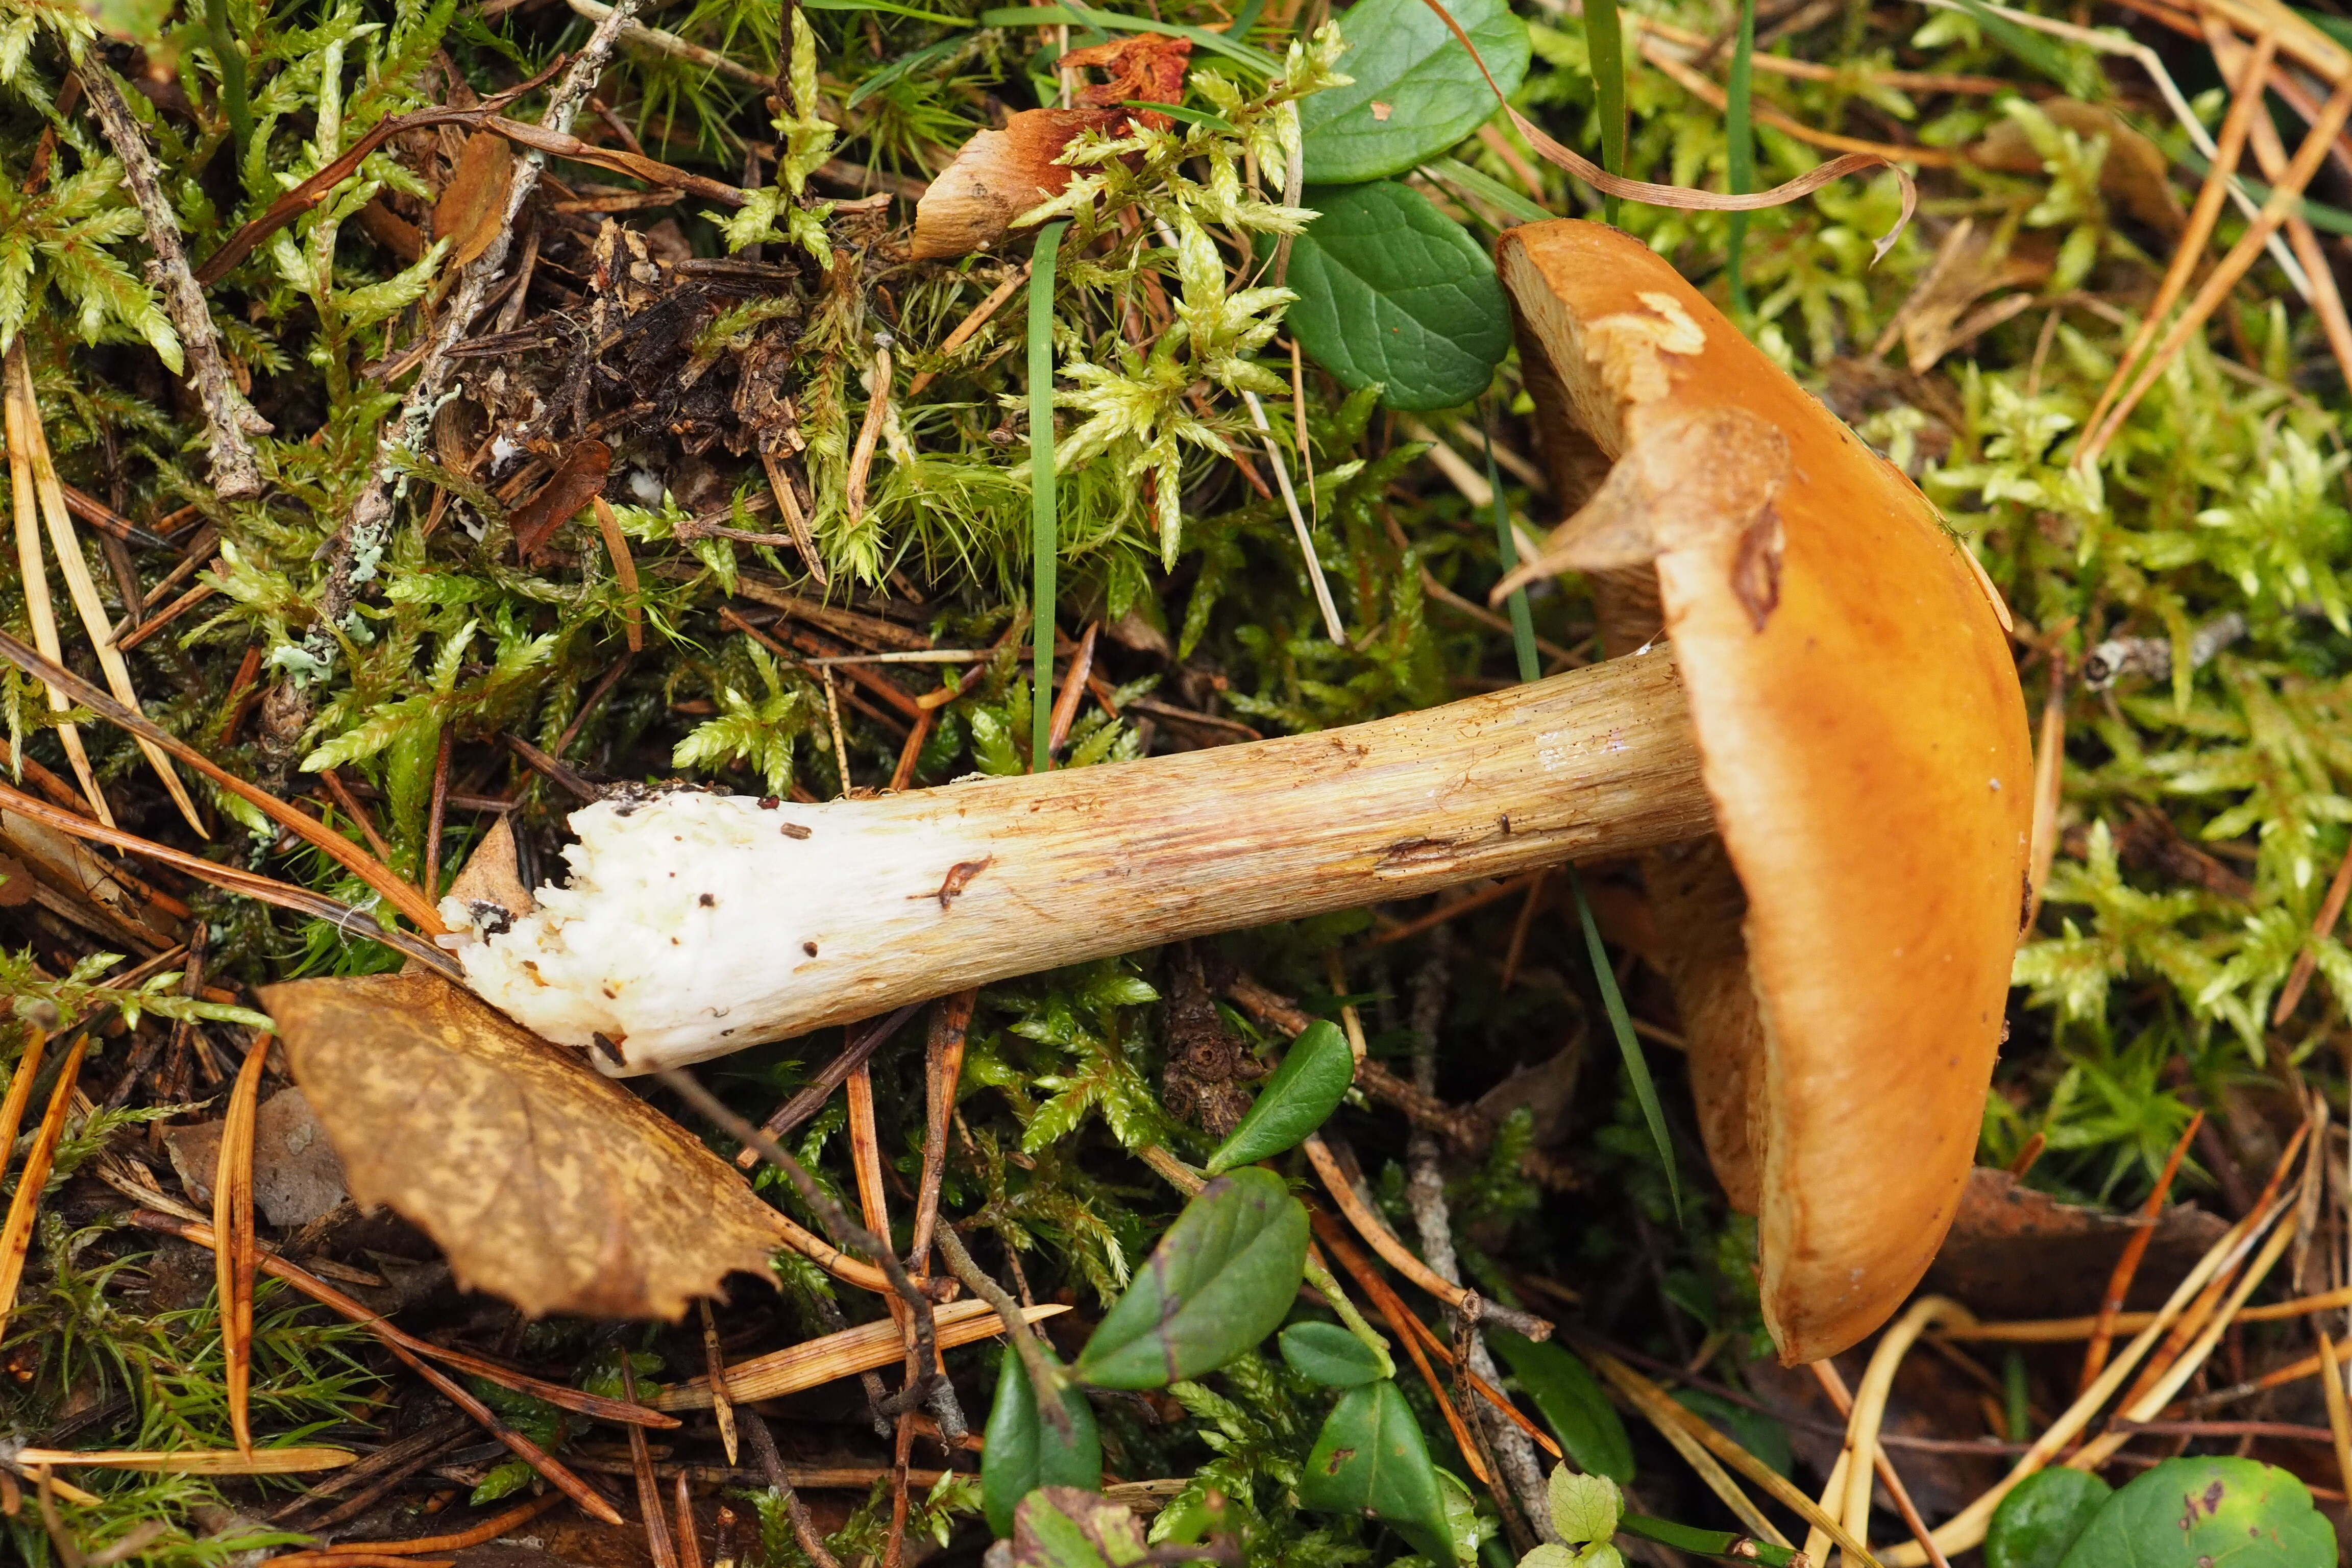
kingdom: Fungi
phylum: Basidiomycota
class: Agaricomycetes
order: Agaricales
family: Cortinariaceae
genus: Thaxterogaster
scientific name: Thaxterogaster multiformis
